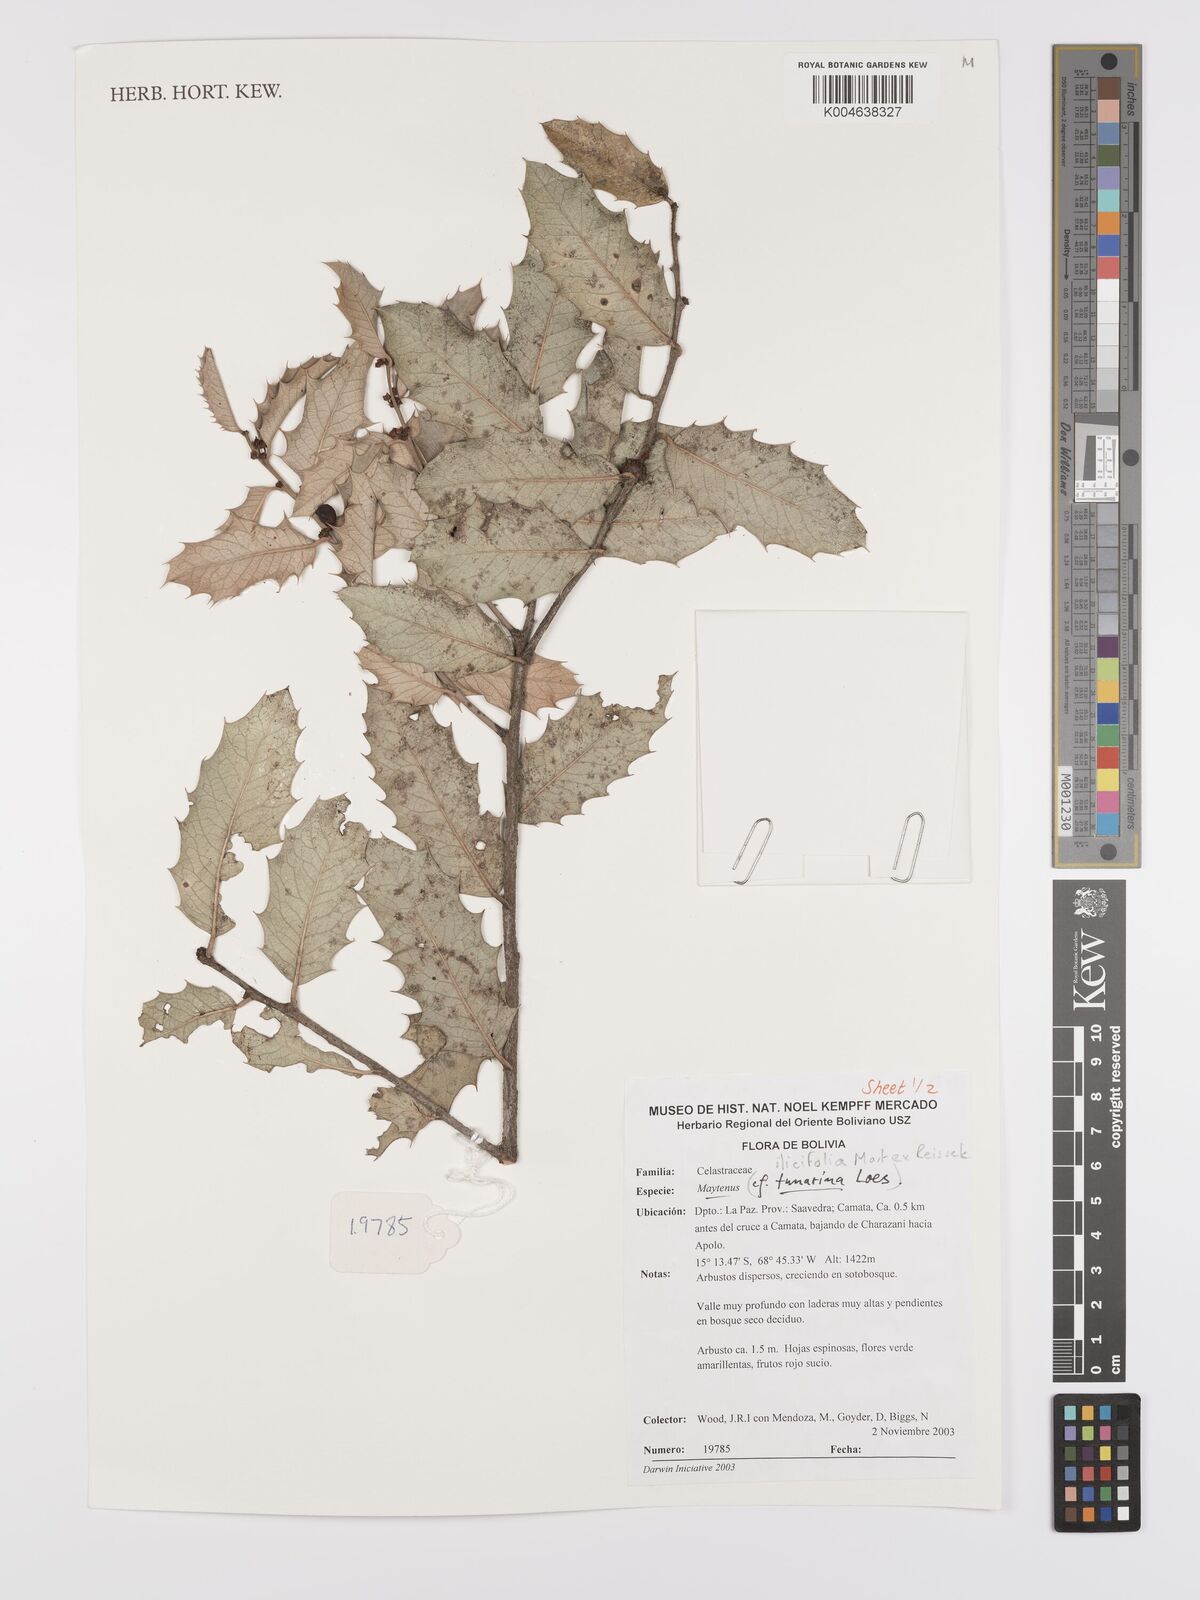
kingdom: Plantae
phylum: Tracheophyta
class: Magnoliopsida
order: Celastrales
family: Celastraceae
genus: Maytenus
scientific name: Maytenus
